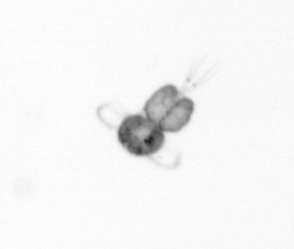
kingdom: Animalia
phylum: Arthropoda
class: Copepoda
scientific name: Copepoda
